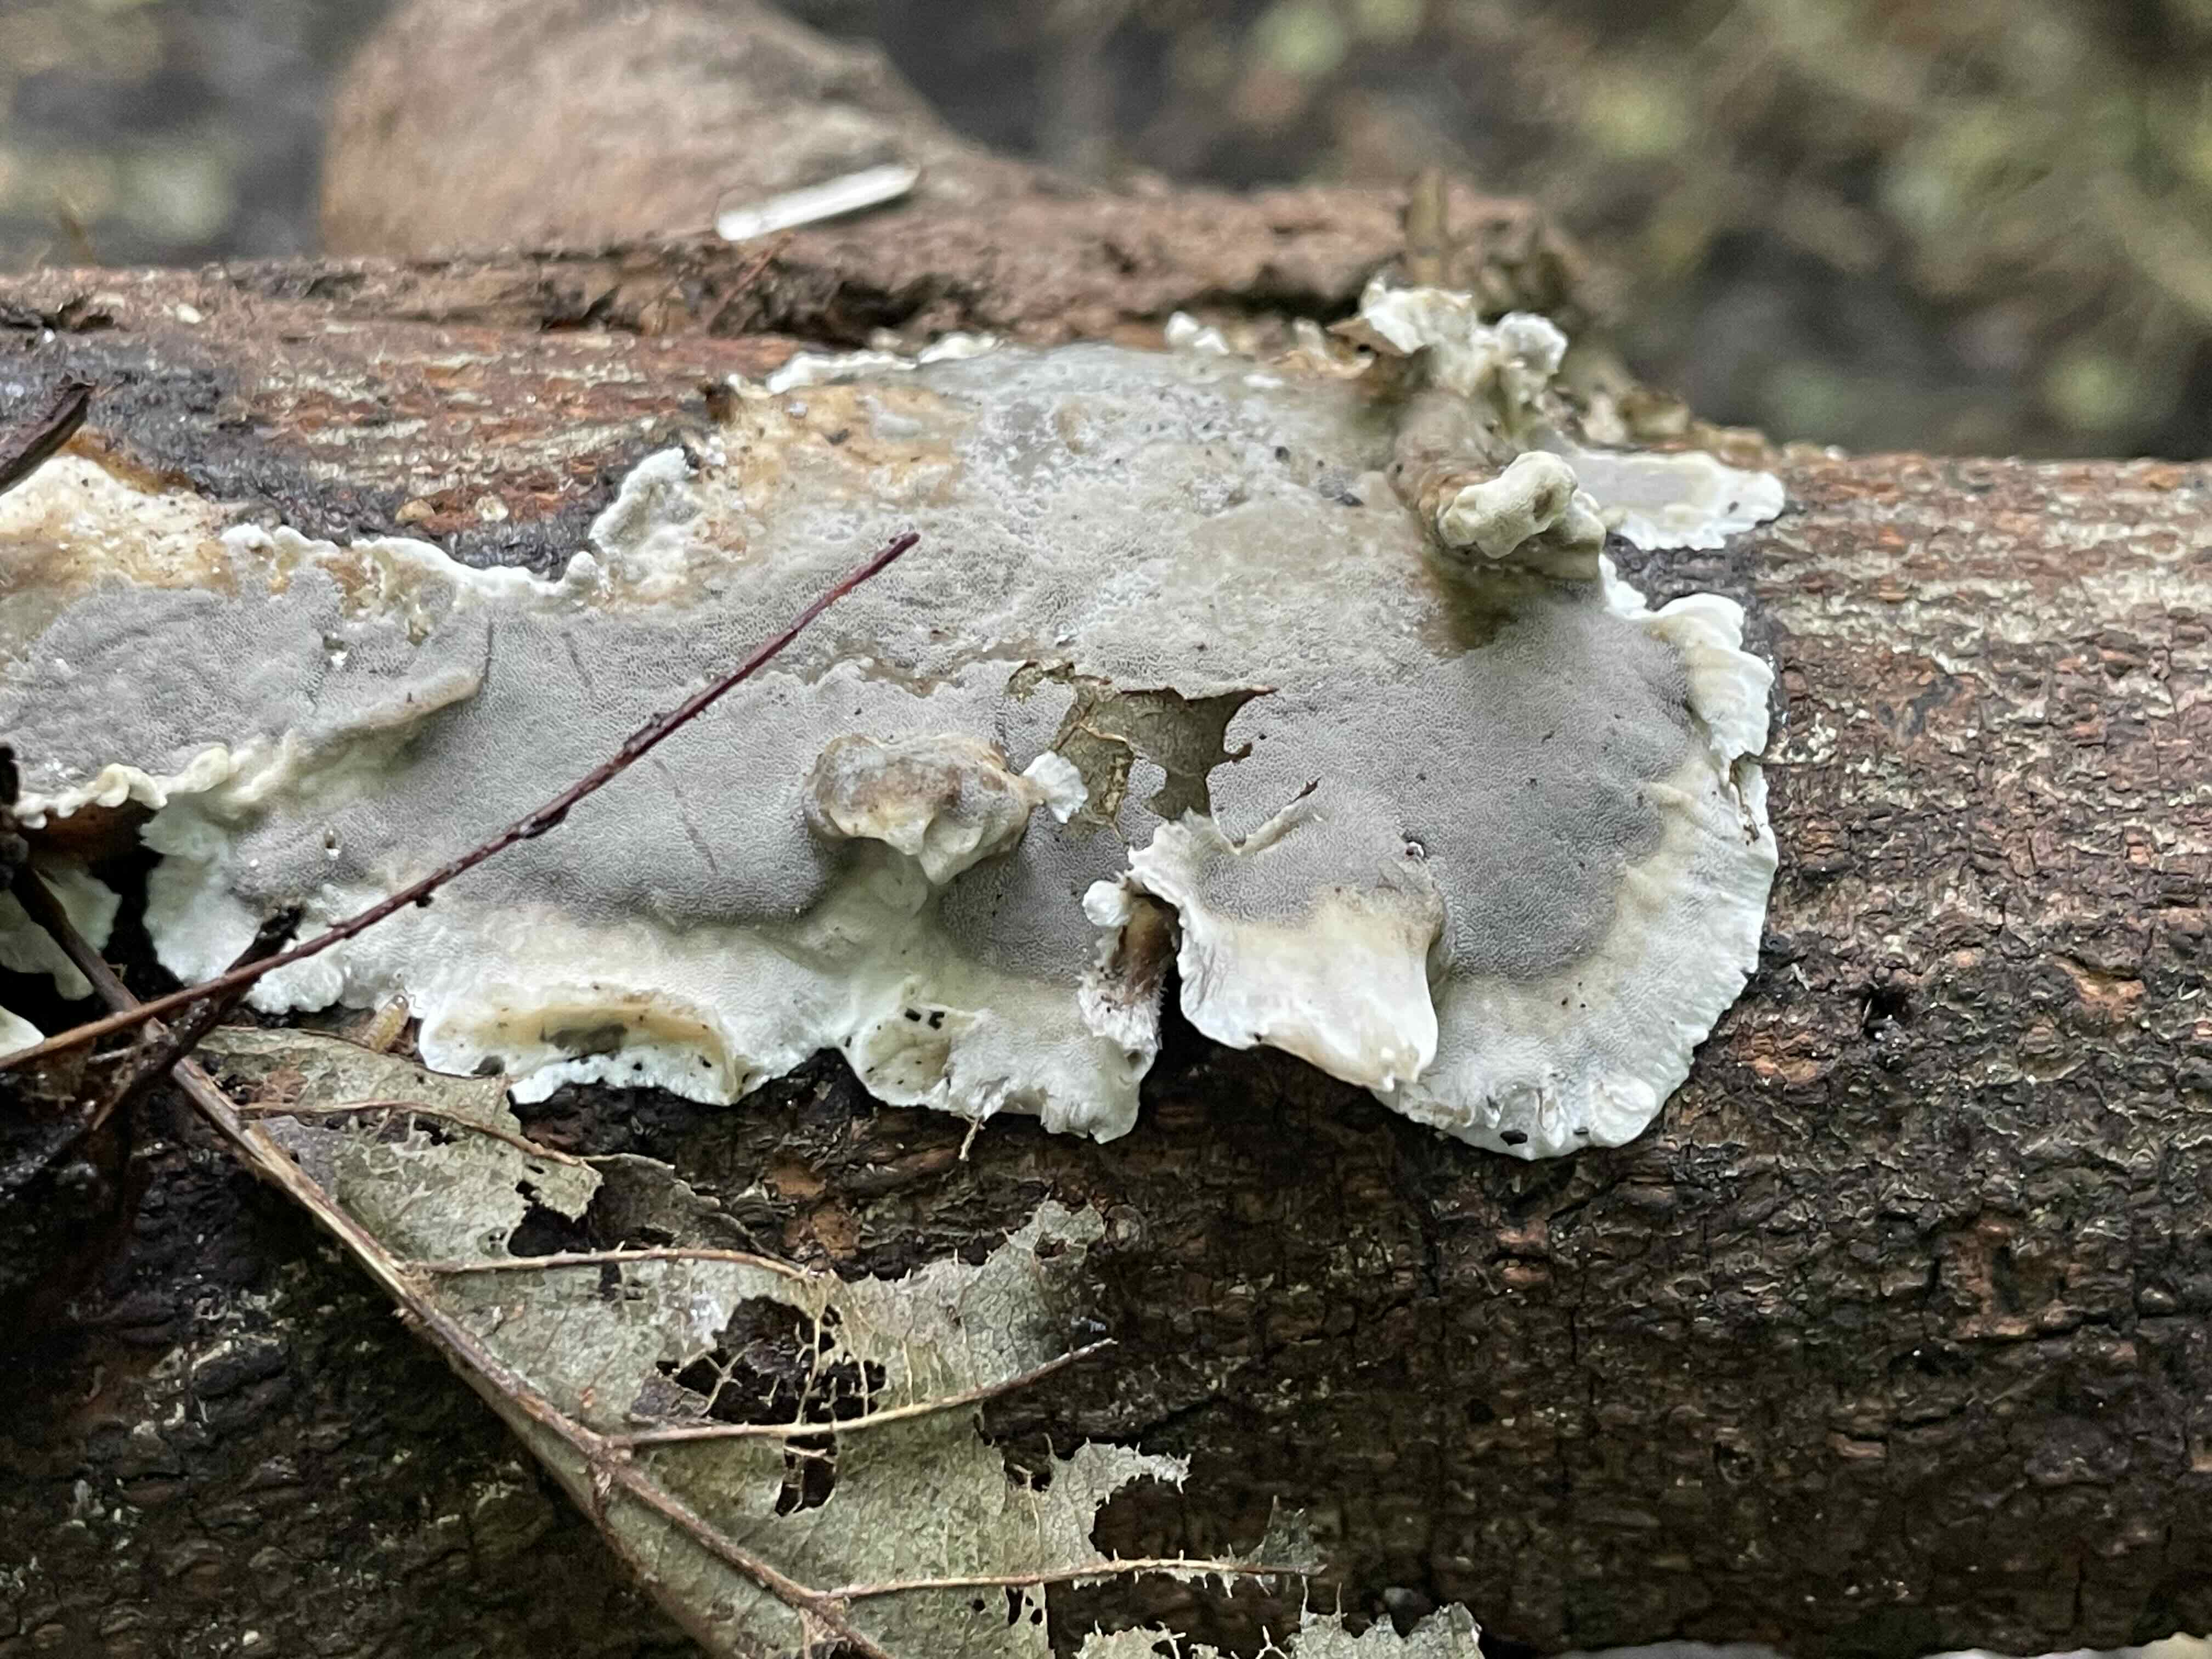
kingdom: Fungi
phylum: Basidiomycota
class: Agaricomycetes
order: Polyporales
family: Phanerochaetaceae
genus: Bjerkandera
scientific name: Bjerkandera adusta
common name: sveden sodporesvamp
